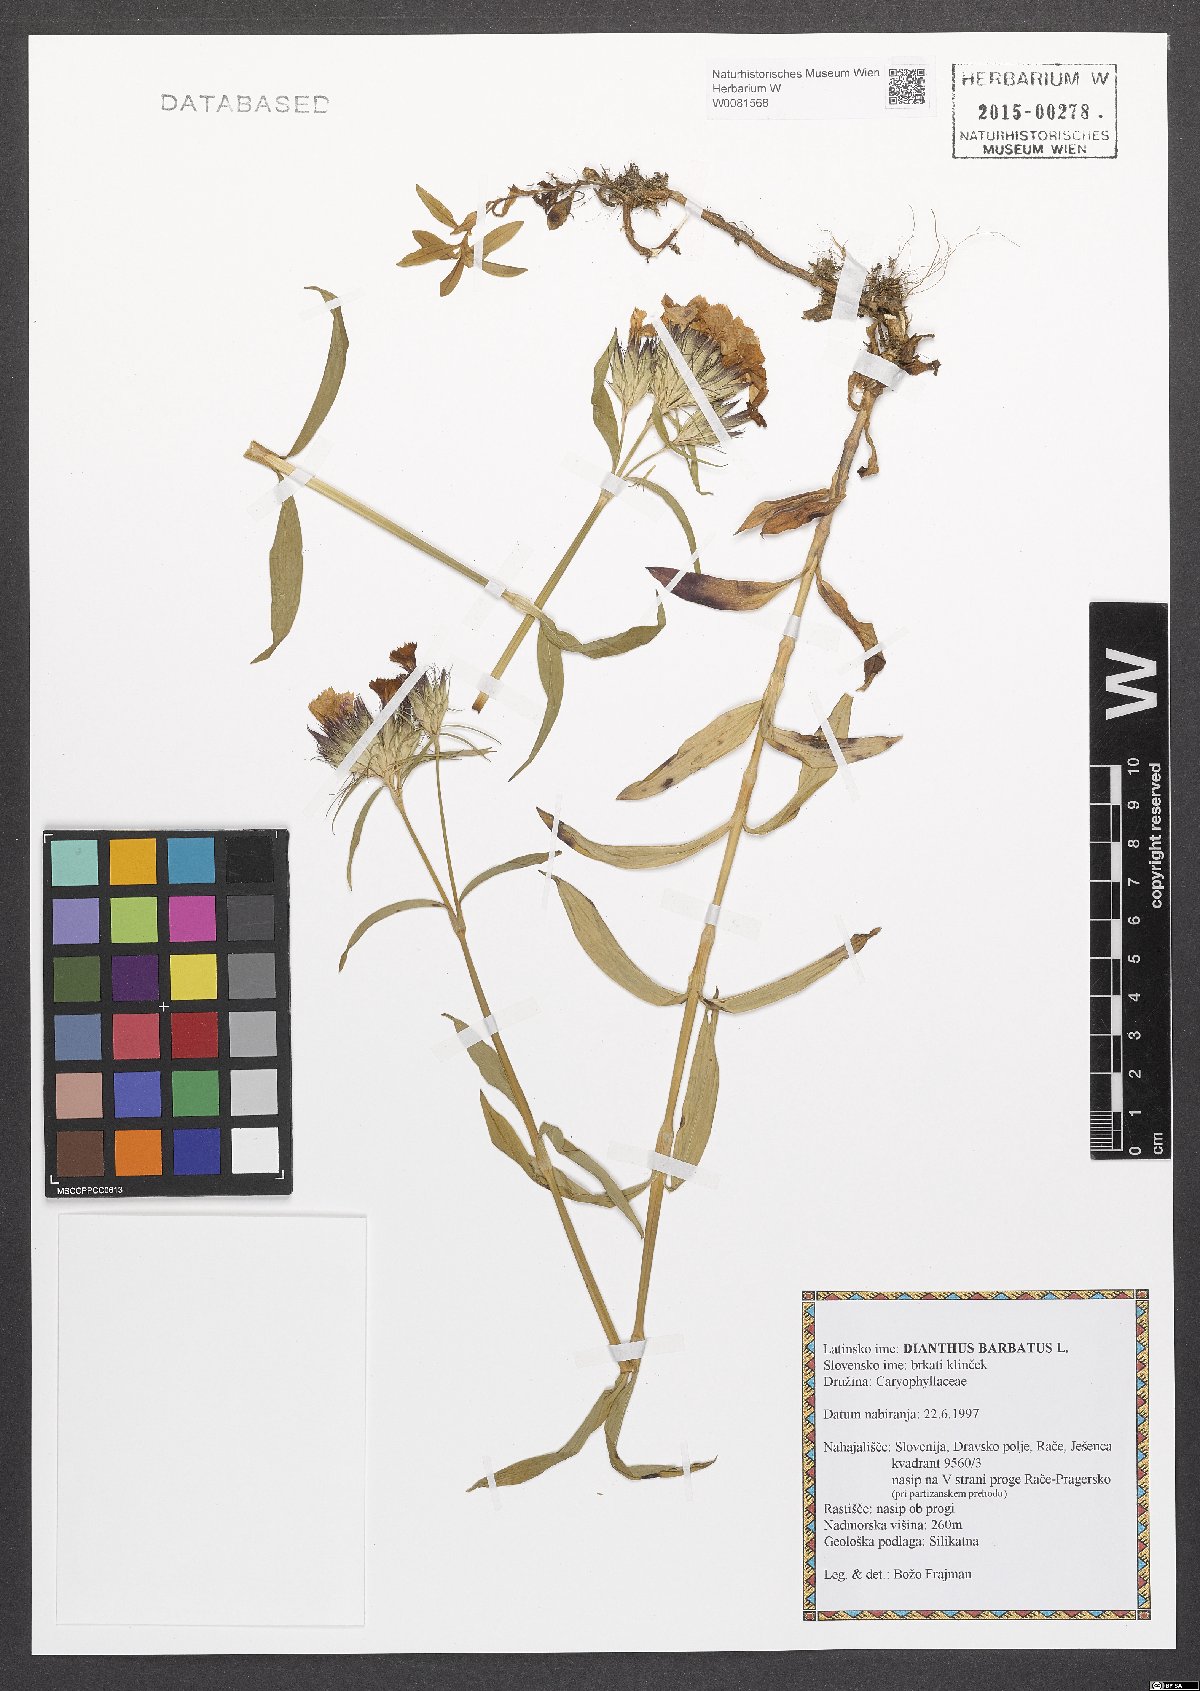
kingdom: Plantae
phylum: Tracheophyta
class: Magnoliopsida
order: Caryophyllales
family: Caryophyllaceae
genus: Dianthus
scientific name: Dianthus barbatus
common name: Sweet-william
